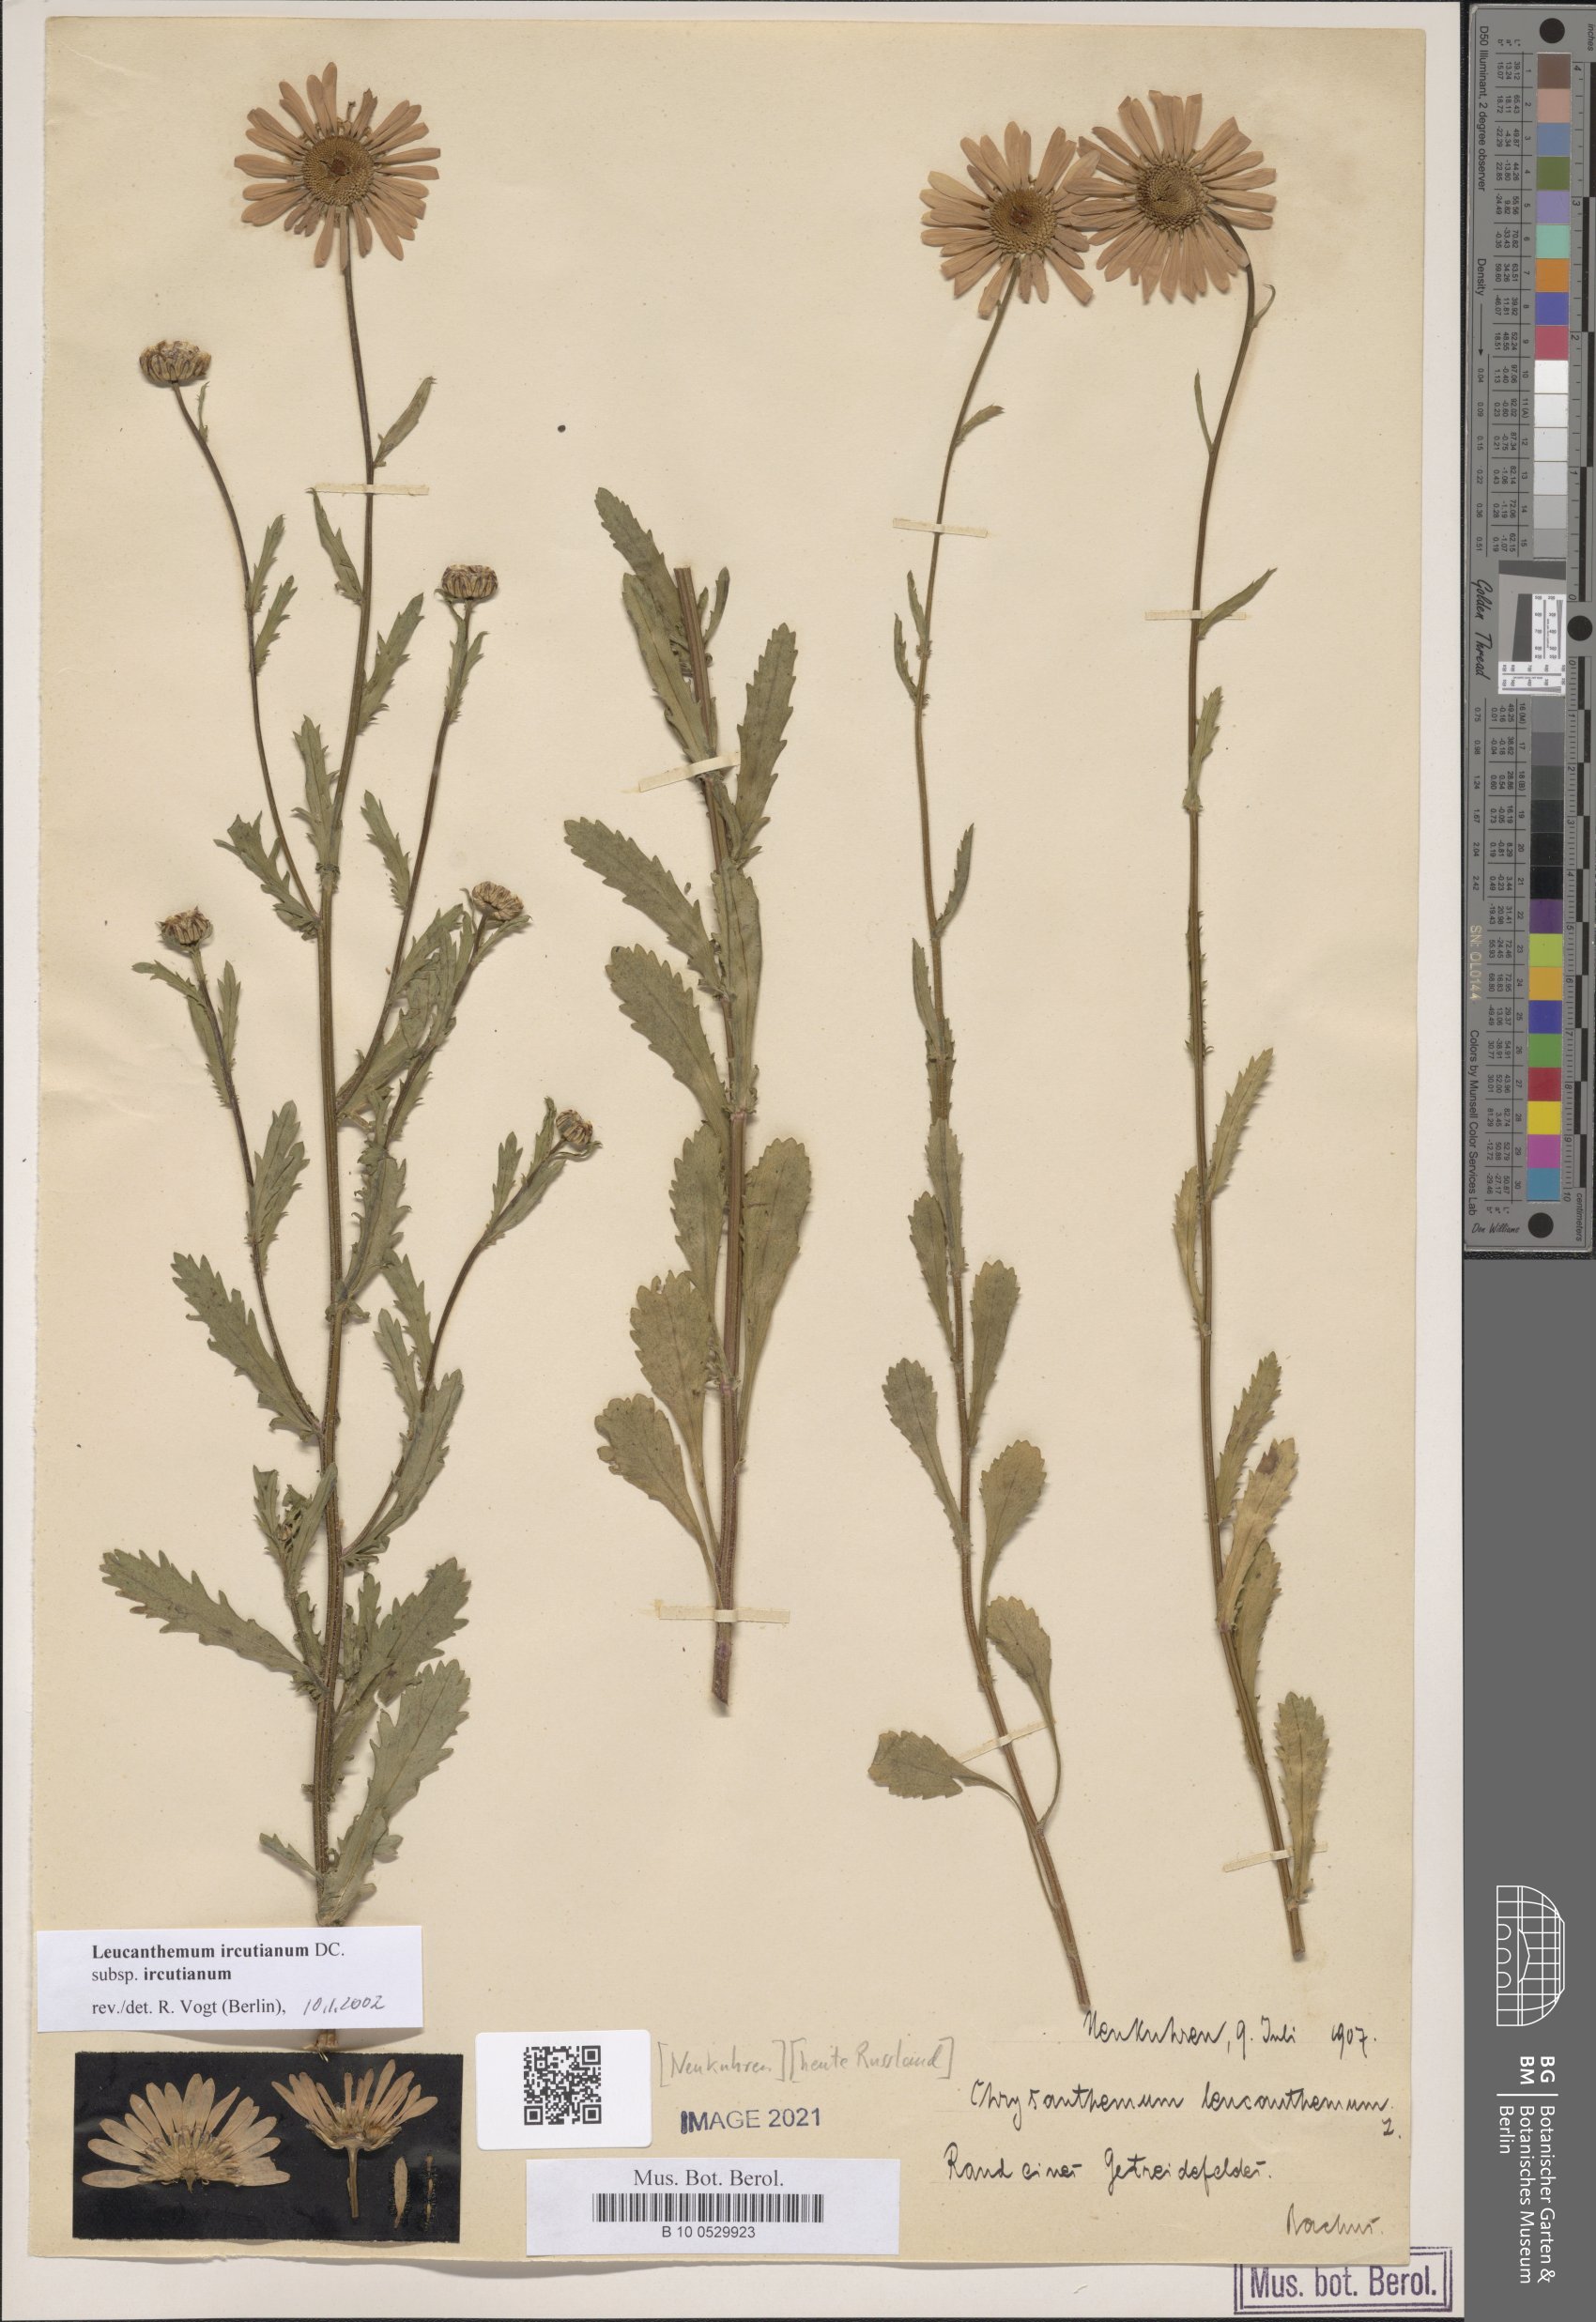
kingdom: Plantae
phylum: Tracheophyta
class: Magnoliopsida
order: Asterales
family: Asteraceae
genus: Leucanthemum
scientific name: Leucanthemum ircutianum
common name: Daisy
